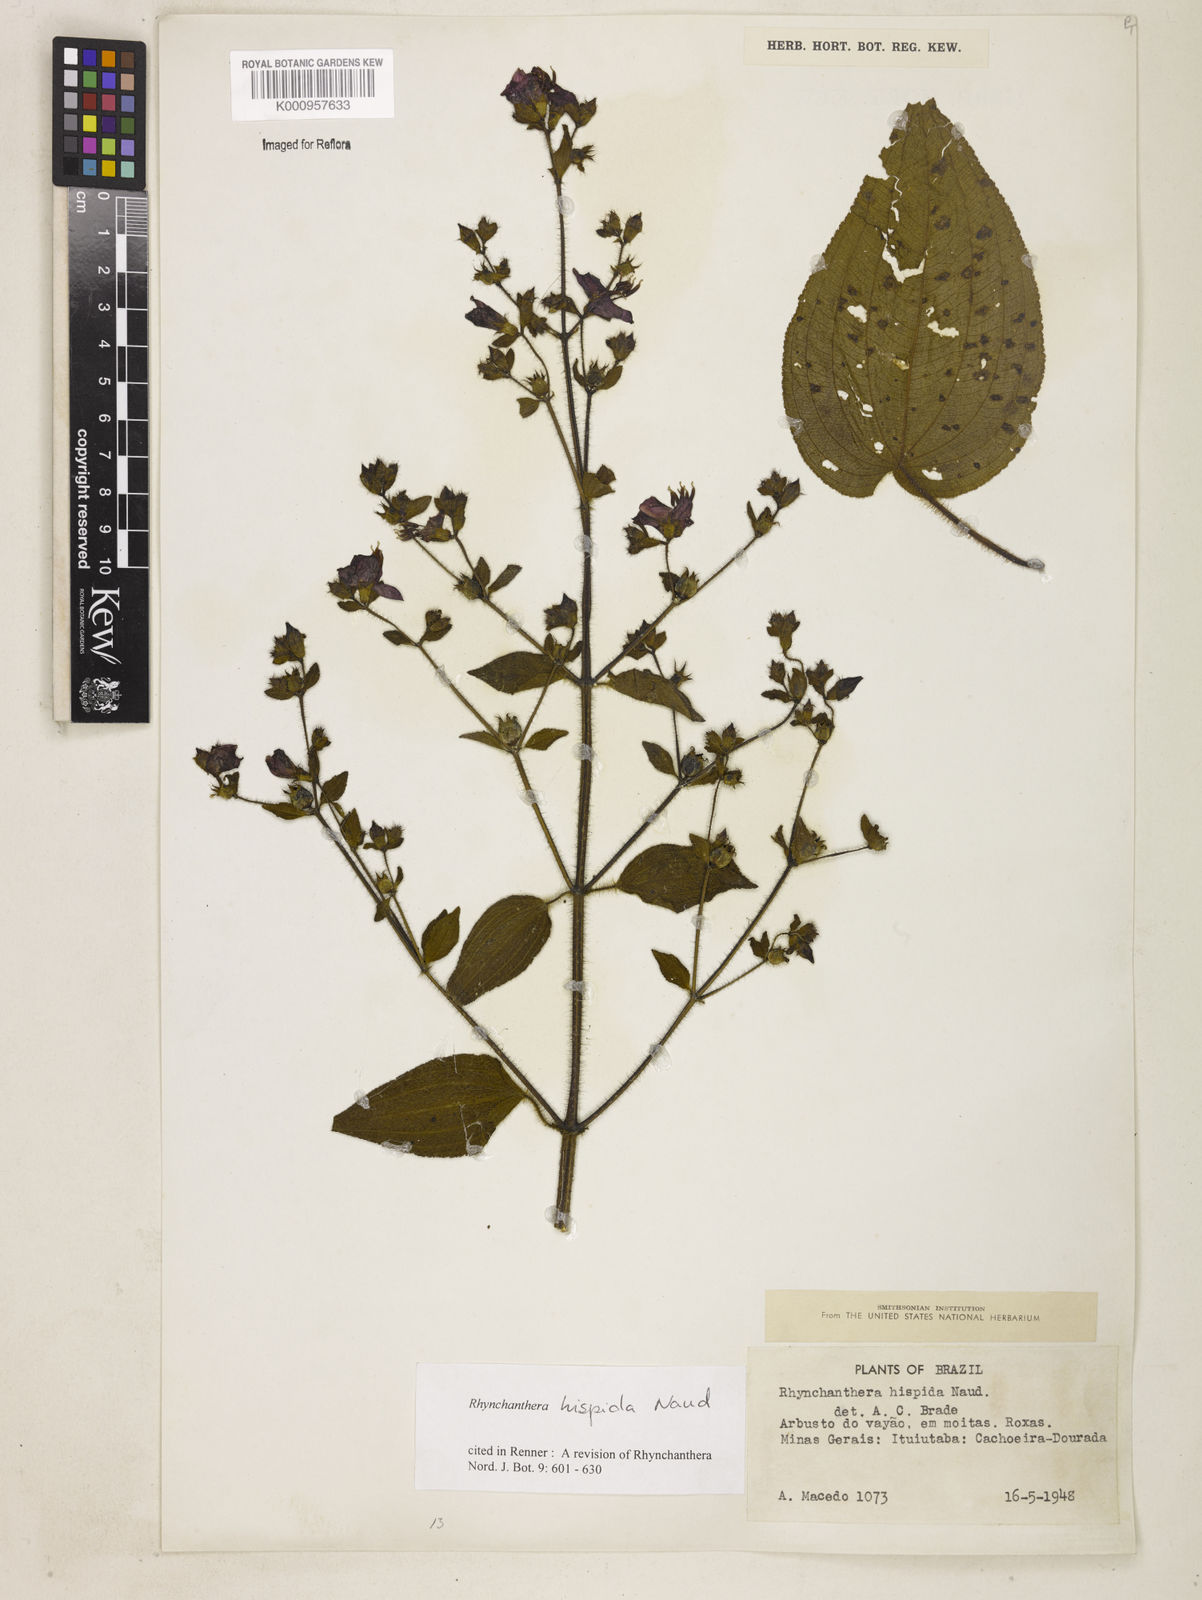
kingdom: Plantae
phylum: Tracheophyta
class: Magnoliopsida
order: Myrtales
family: Melastomataceae
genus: Rhynchanthera
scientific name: Rhynchanthera hispida
